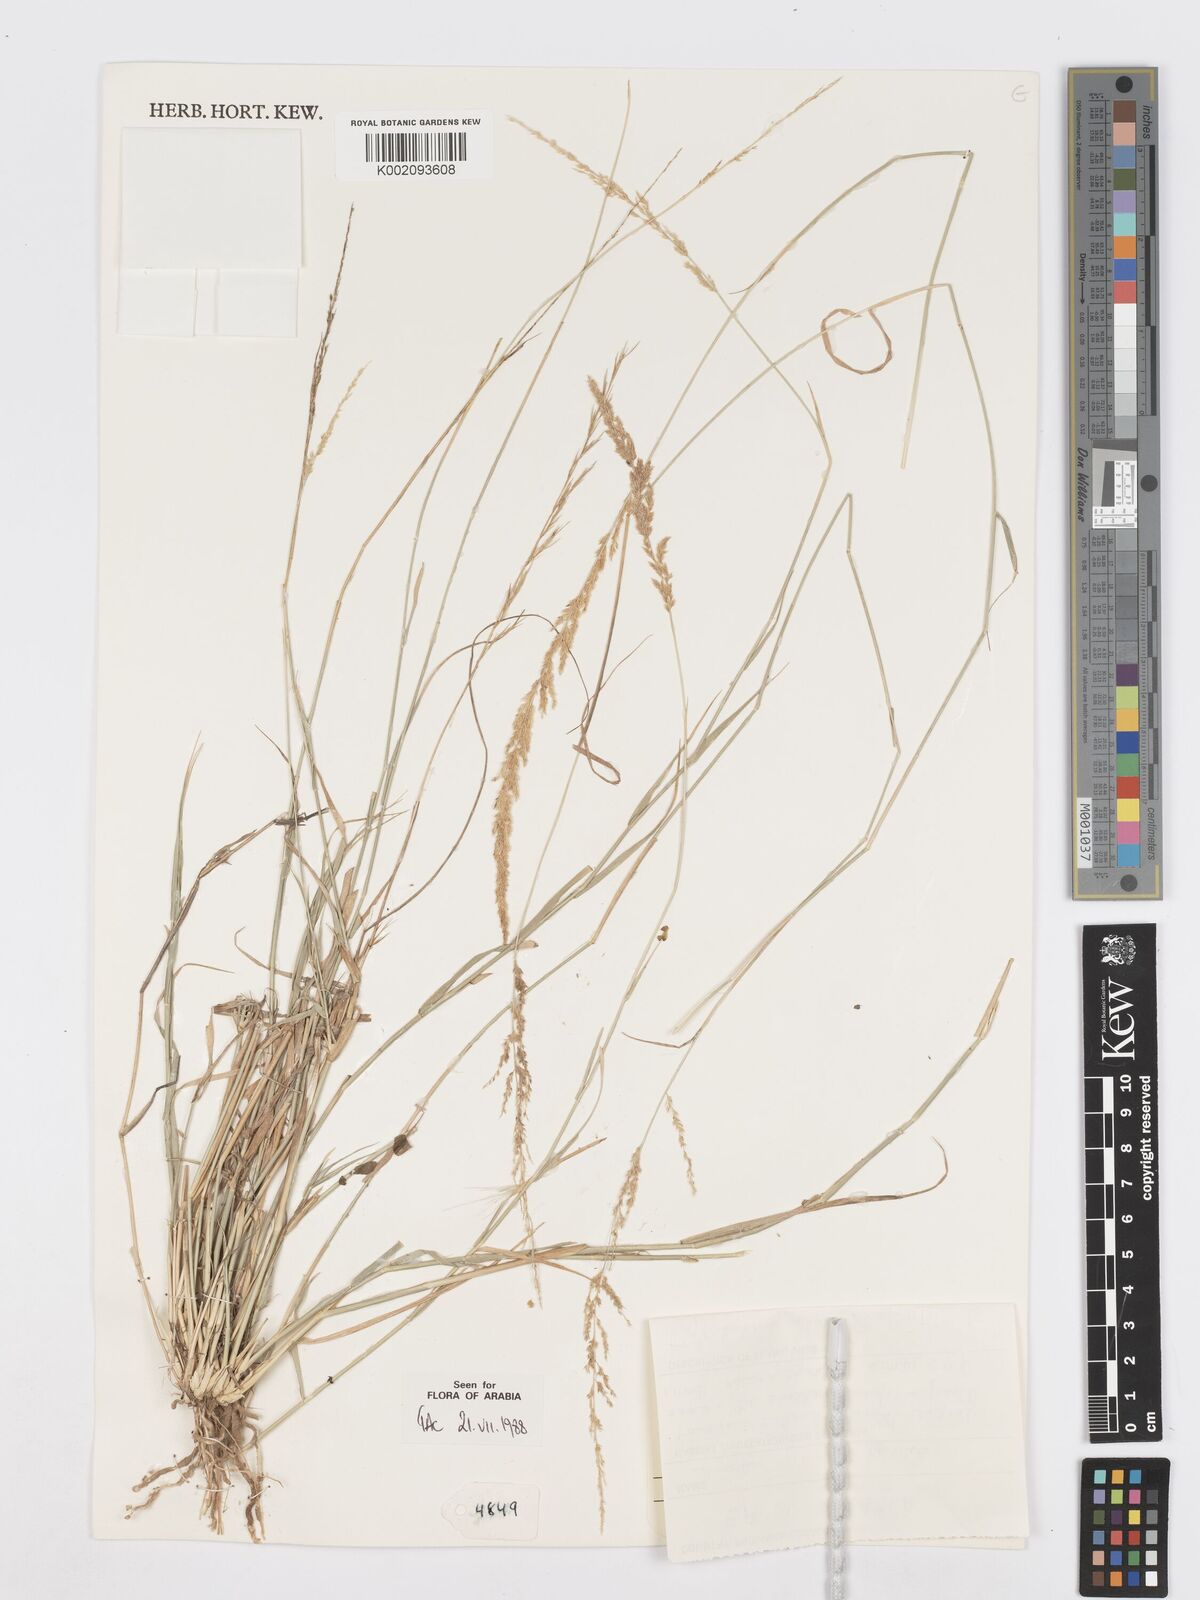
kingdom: Plantae
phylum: Tracheophyta
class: Liliopsida
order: Poales
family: Poaceae
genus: Sporobolus
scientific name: Sporobolus helvolus
